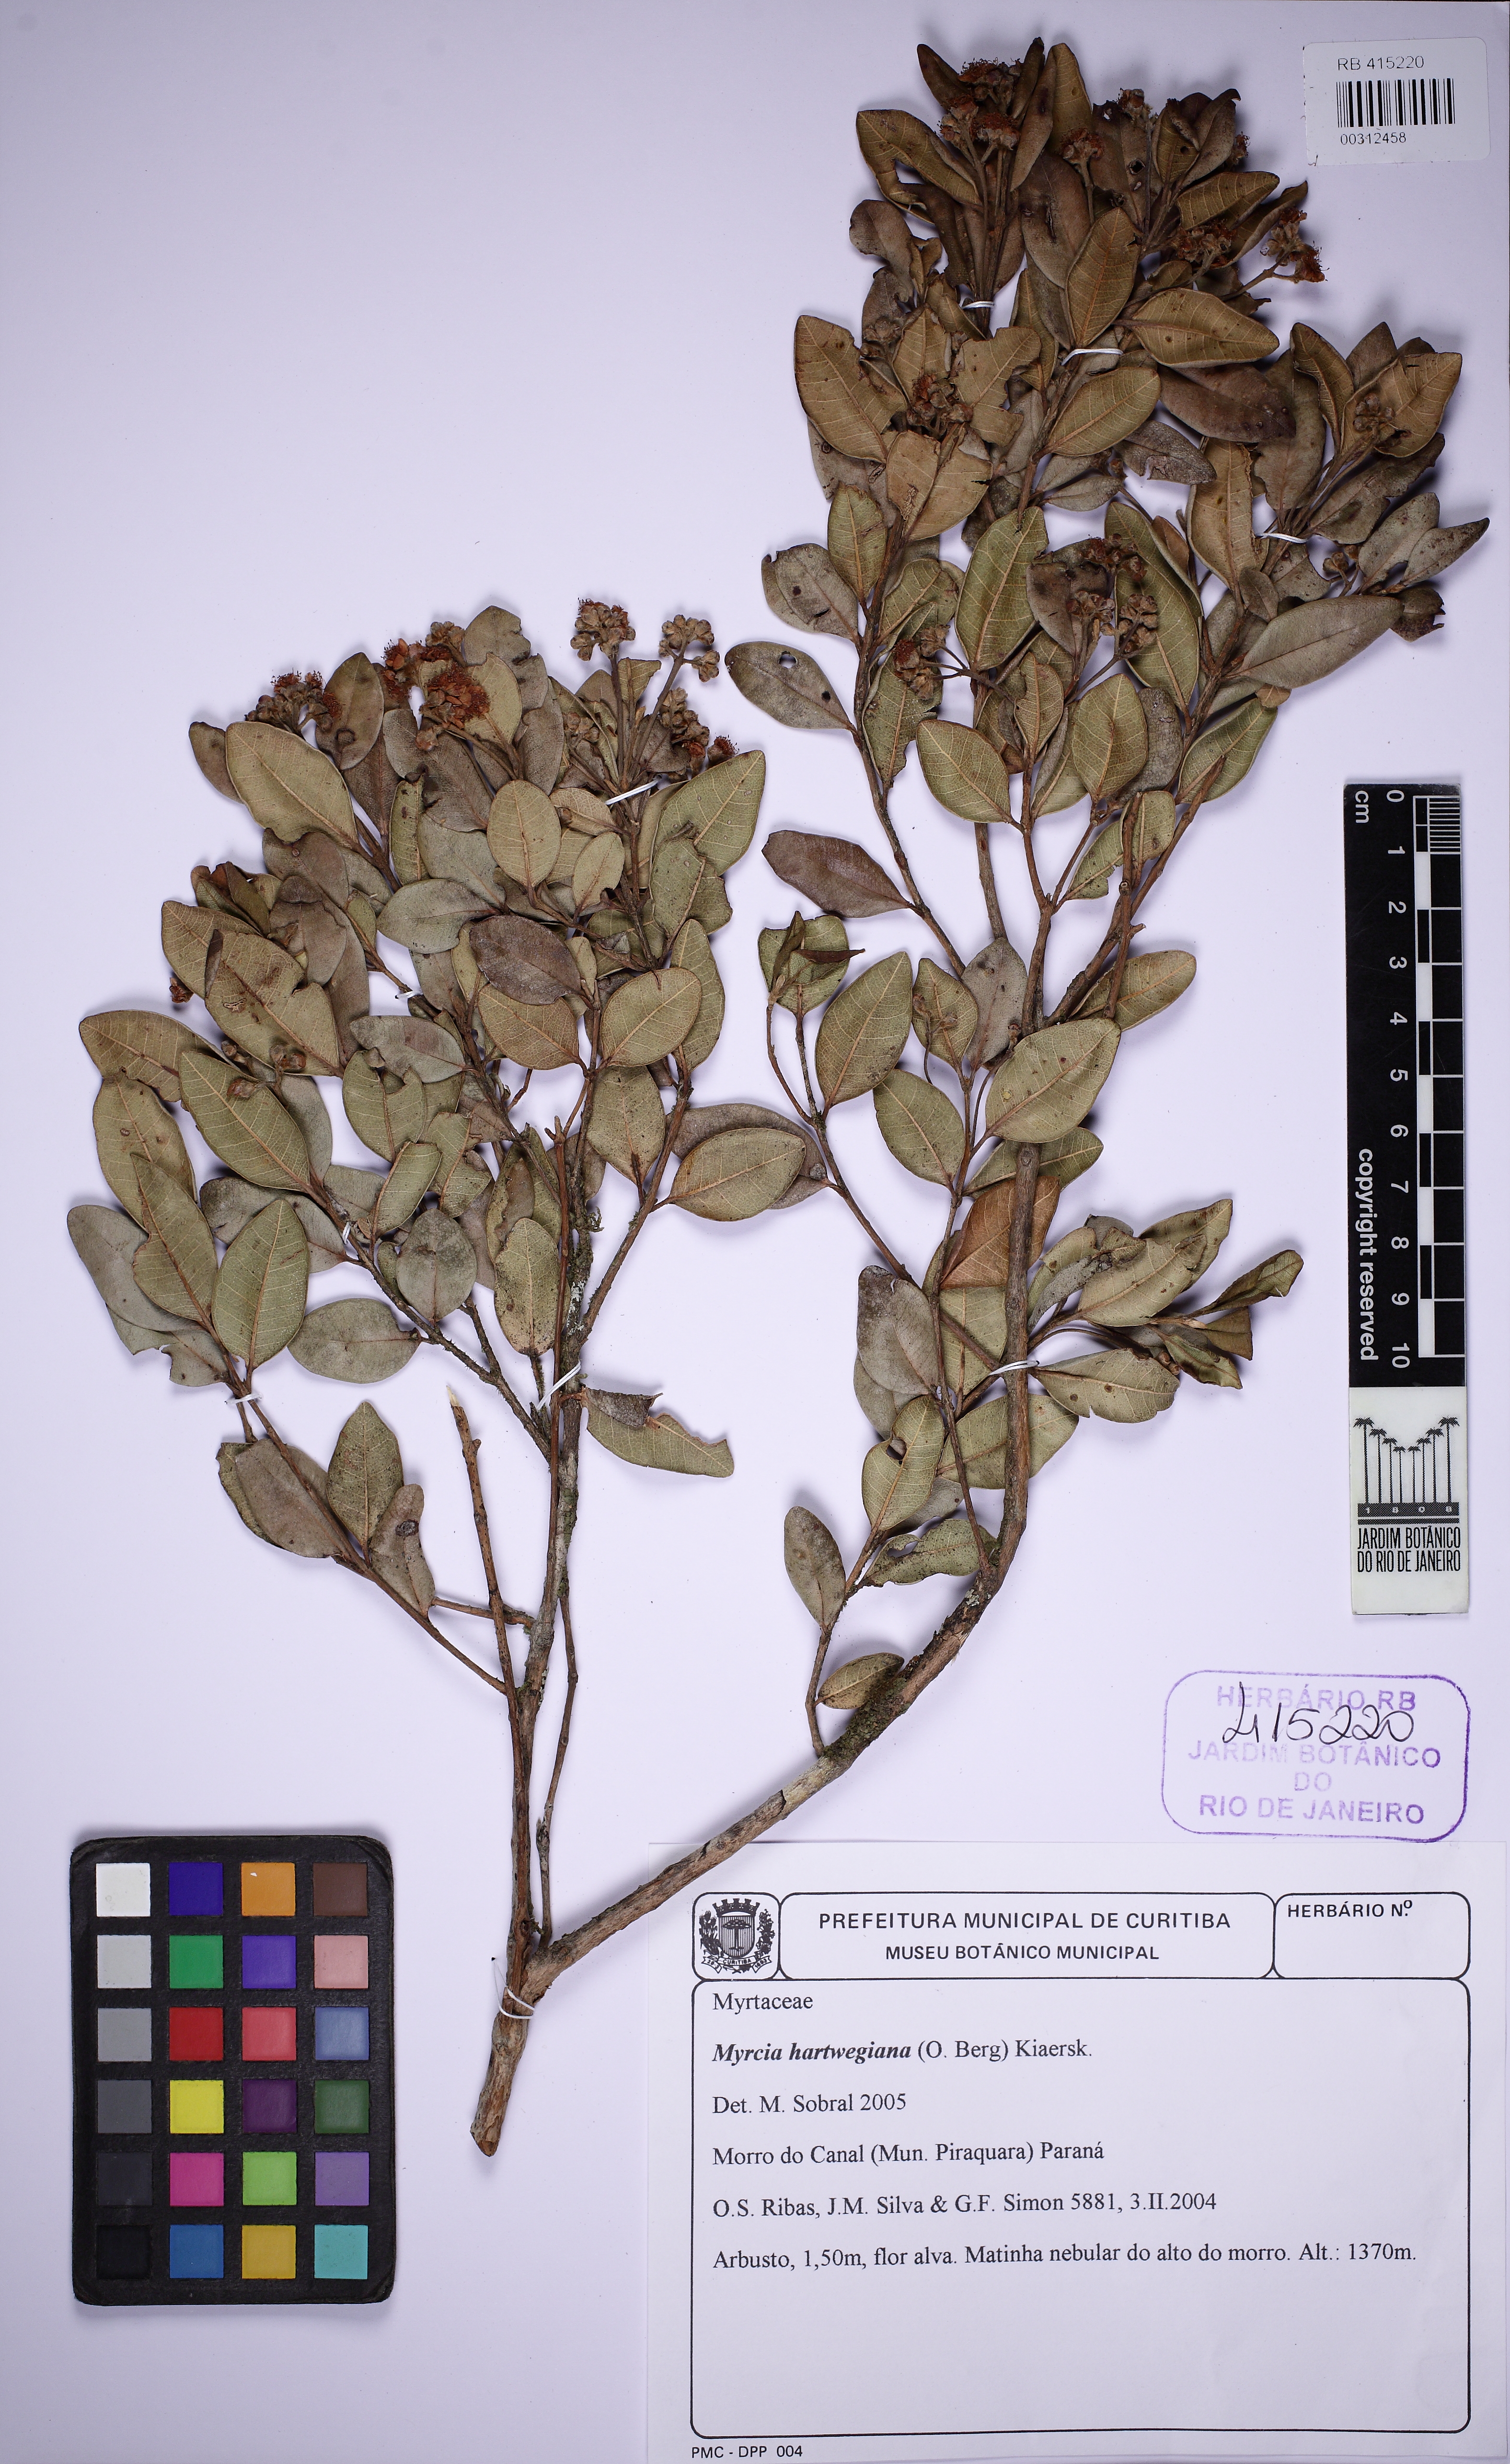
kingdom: Plantae
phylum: Tracheophyta
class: Magnoliopsida
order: Myrtales
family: Myrtaceae
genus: Myrcia
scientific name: Myrcia hartwegiana
